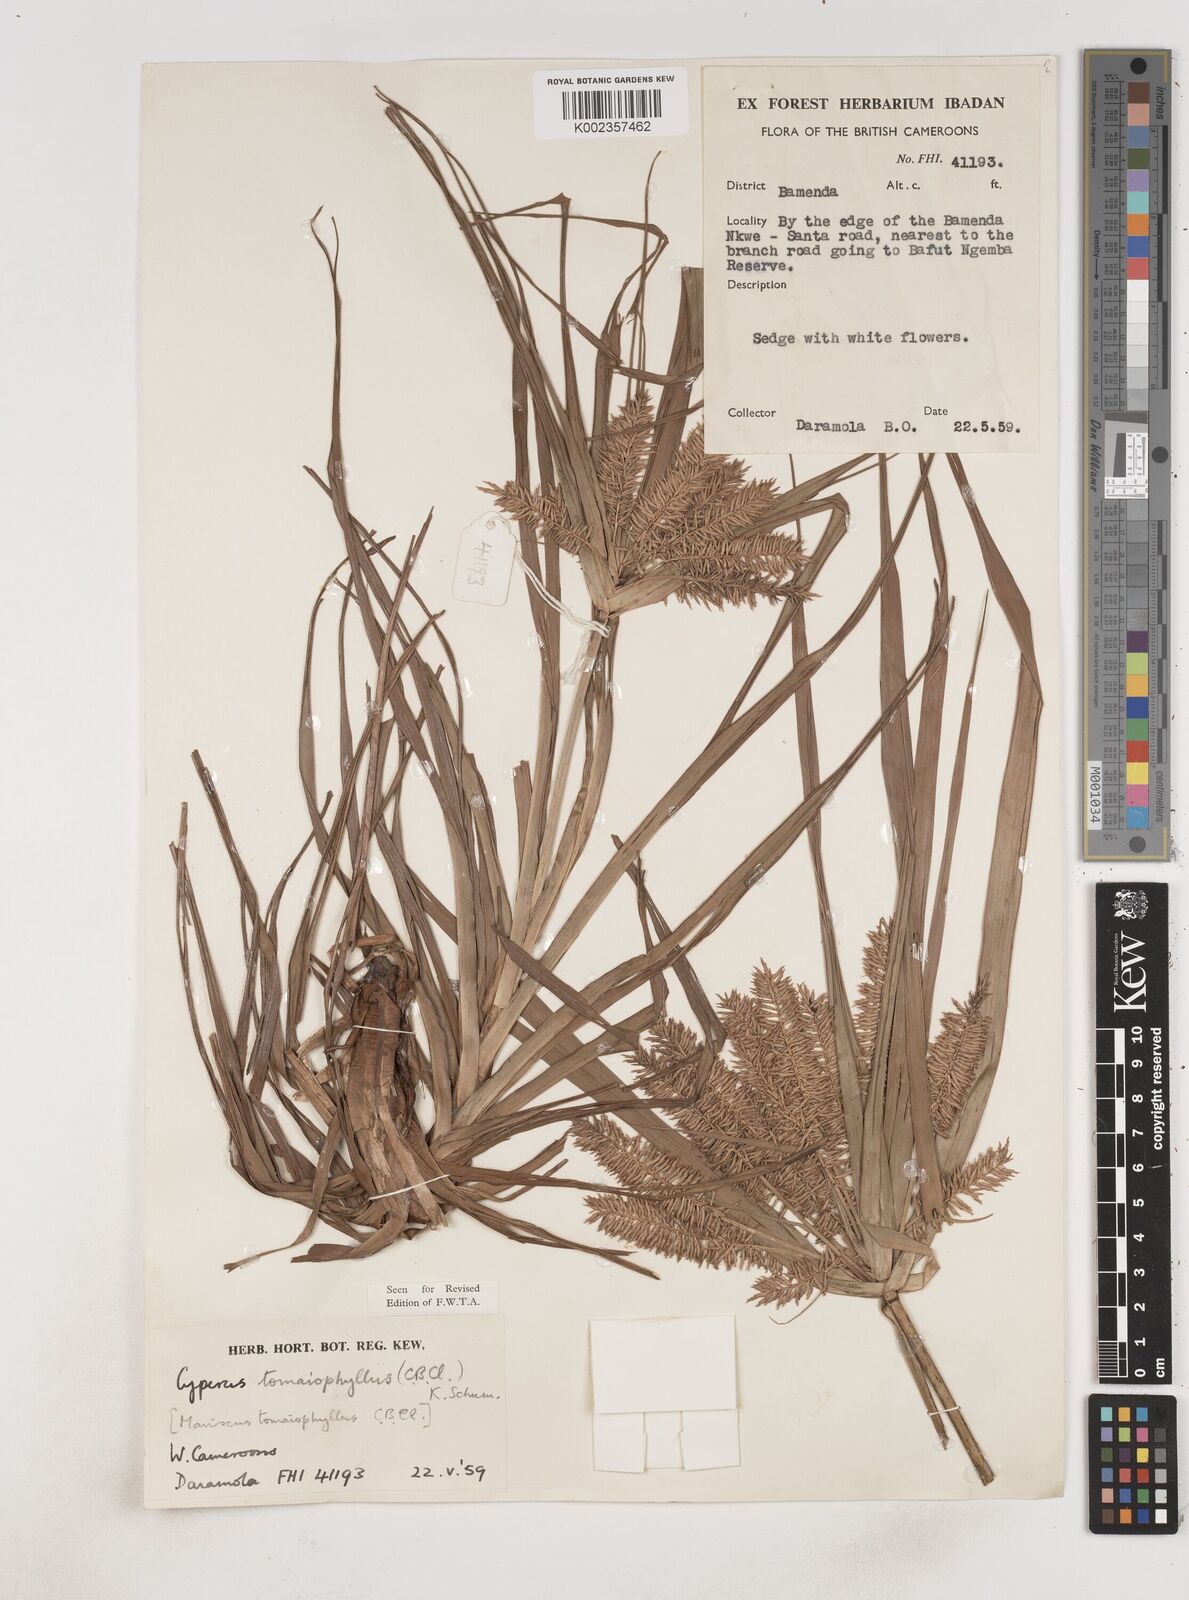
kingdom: Plantae
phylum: Tracheophyta
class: Liliopsida
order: Poales
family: Cyperaceae
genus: Cyperus
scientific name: Cyperus tomaiophyllus
